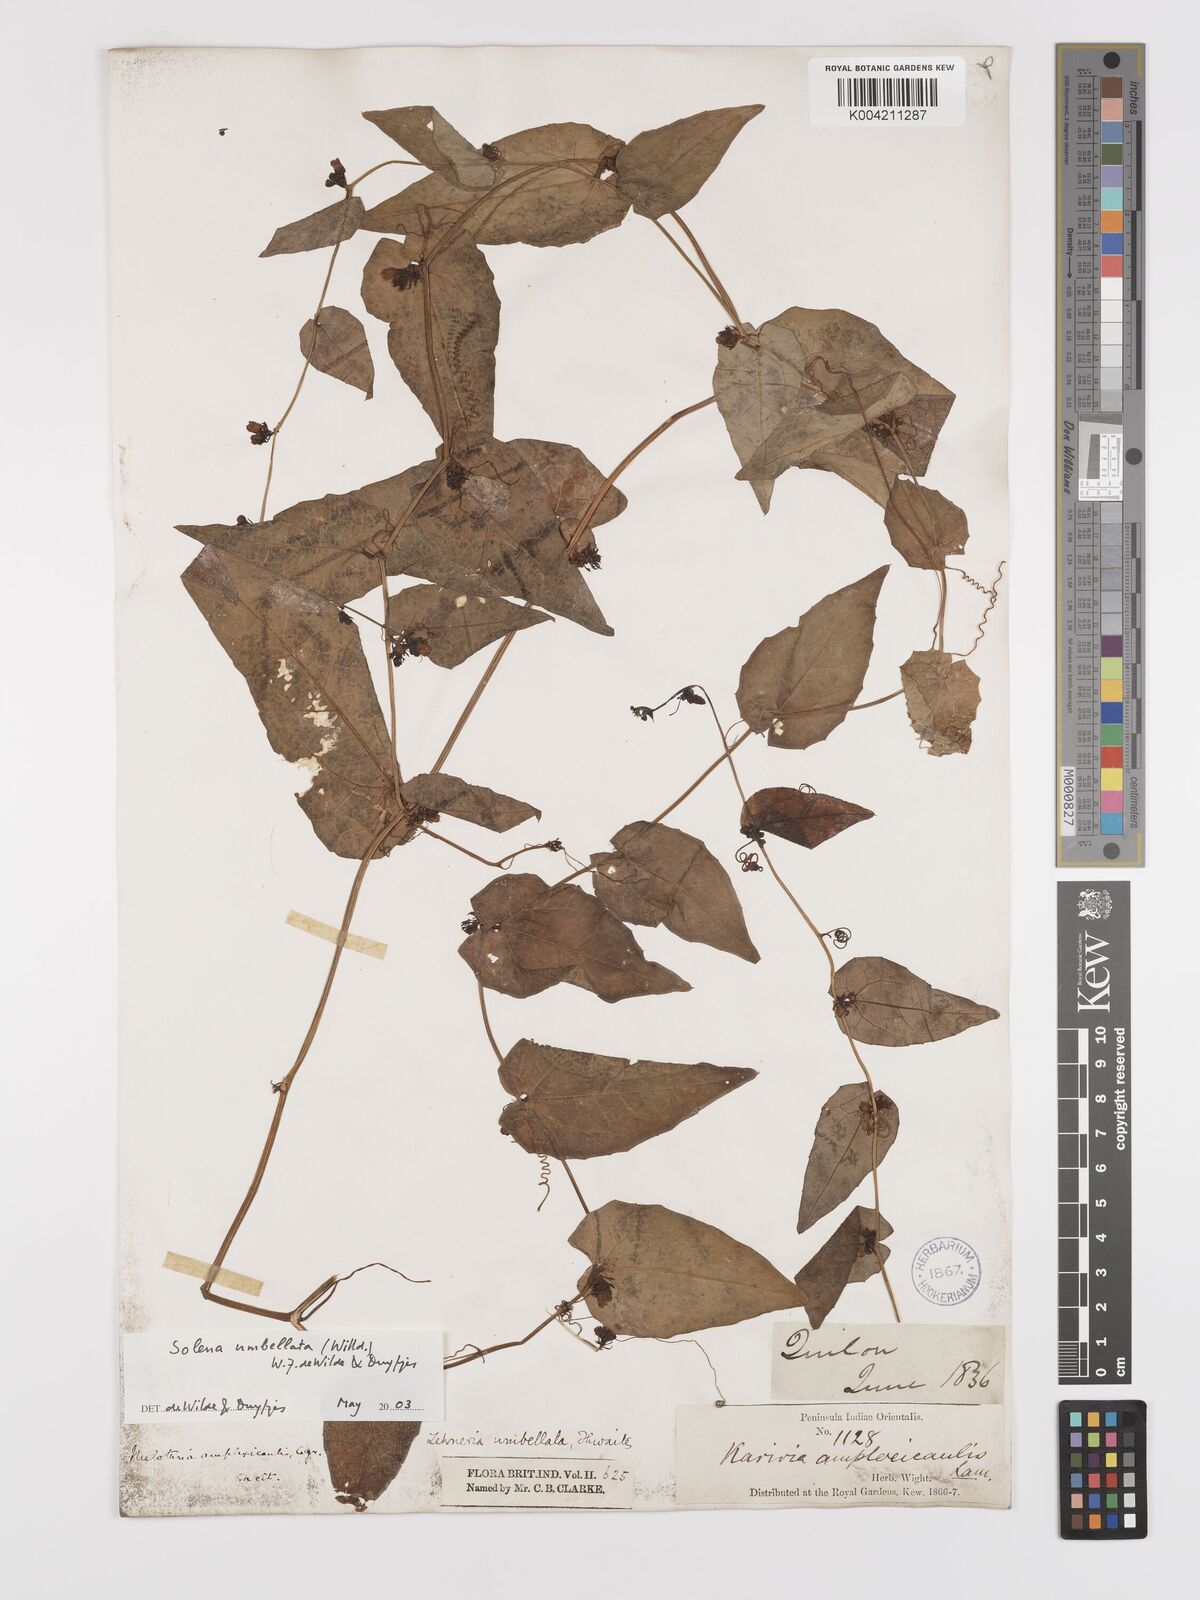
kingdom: Plantae
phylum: Tracheophyta
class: Magnoliopsida
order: Cucurbitales
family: Cucurbitaceae
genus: Solena
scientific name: Solena amplexicaulis
